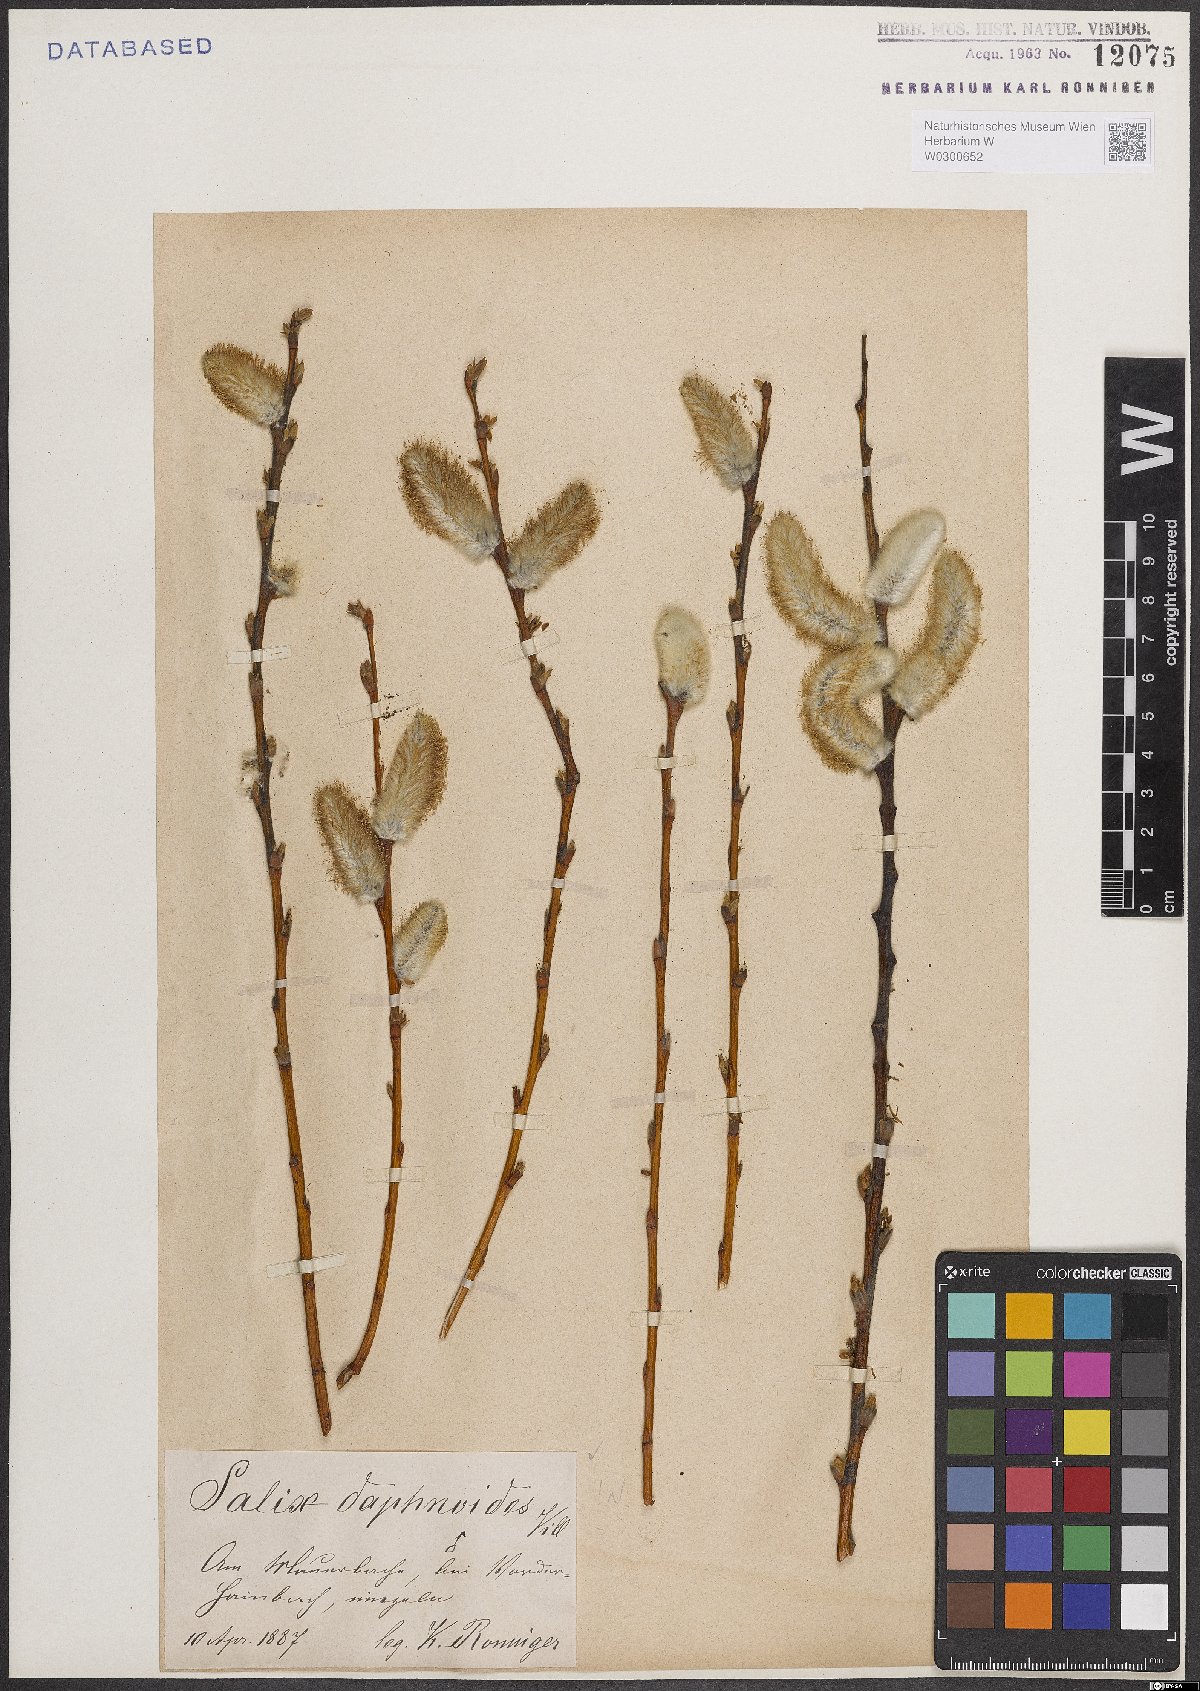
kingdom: Plantae
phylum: Tracheophyta
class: Magnoliopsida
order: Malpighiales
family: Salicaceae
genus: Salix
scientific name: Salix daphnoides
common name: European violet-willow
